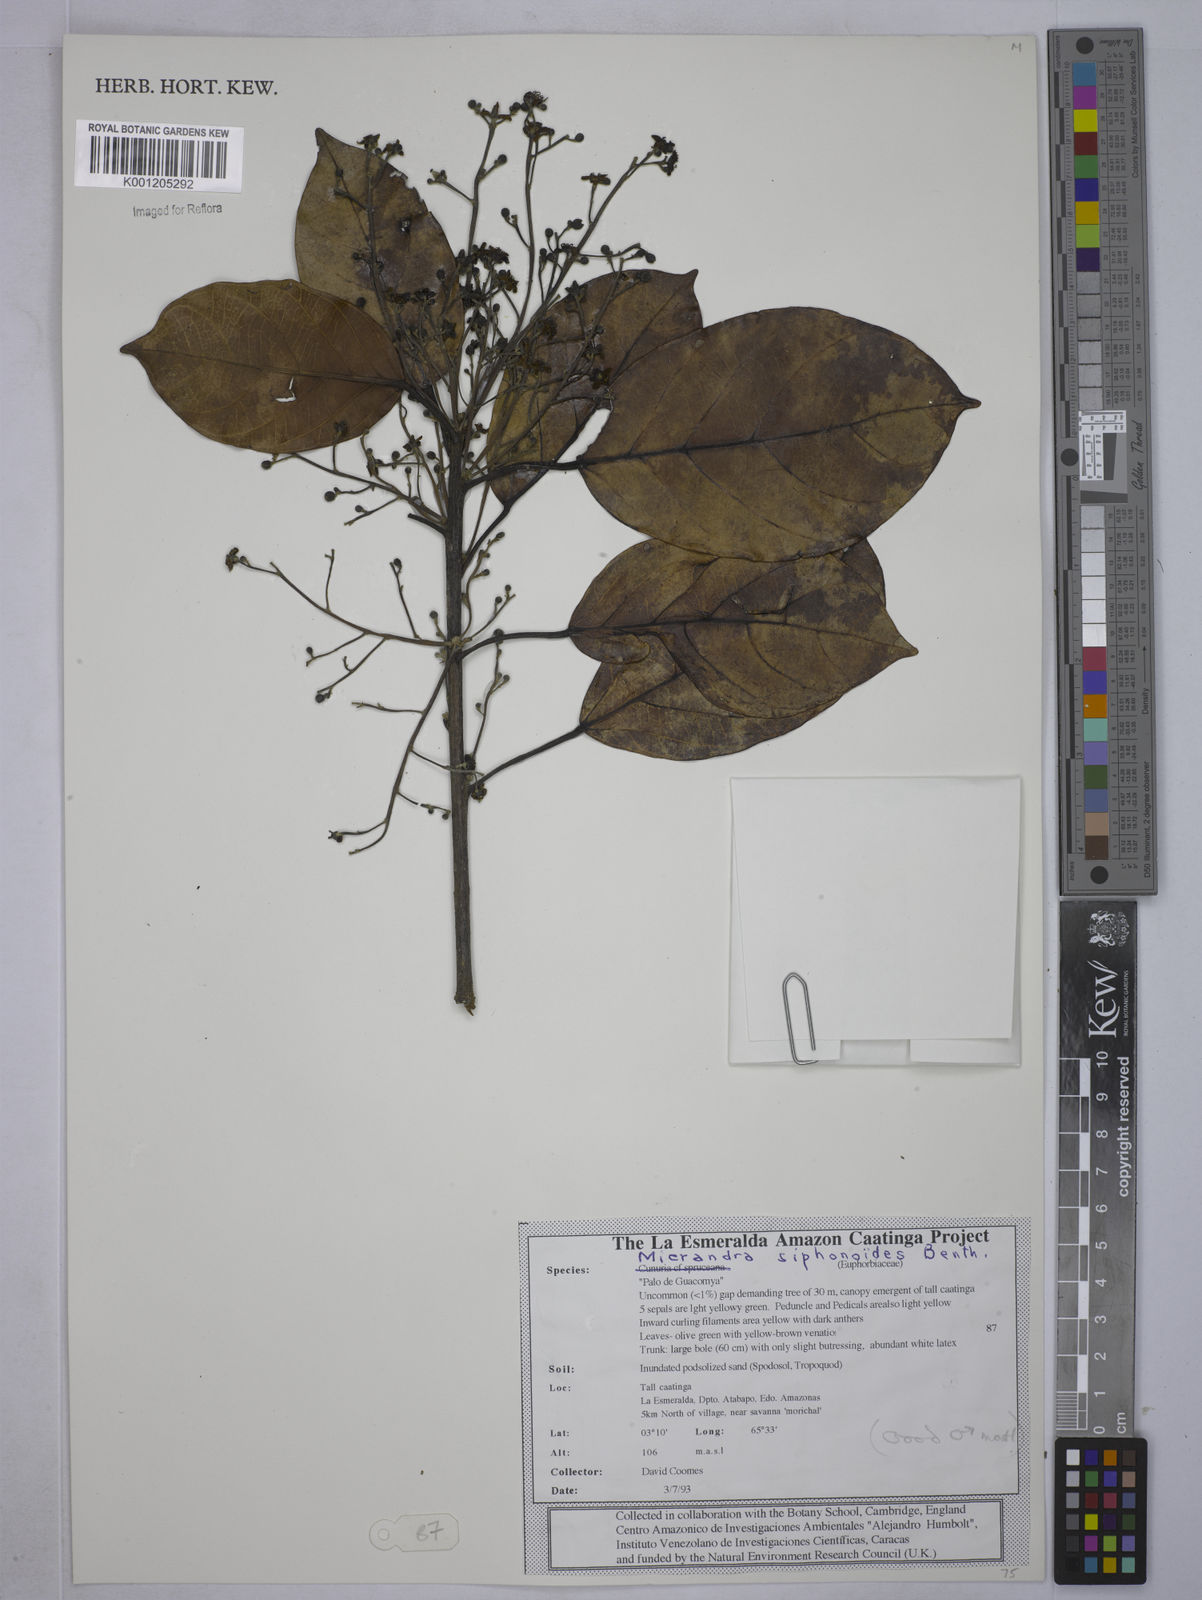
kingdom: Plantae
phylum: Tracheophyta
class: Magnoliopsida
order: Malpighiales
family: Euphorbiaceae
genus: Micrandra
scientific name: Micrandra siphonioides
